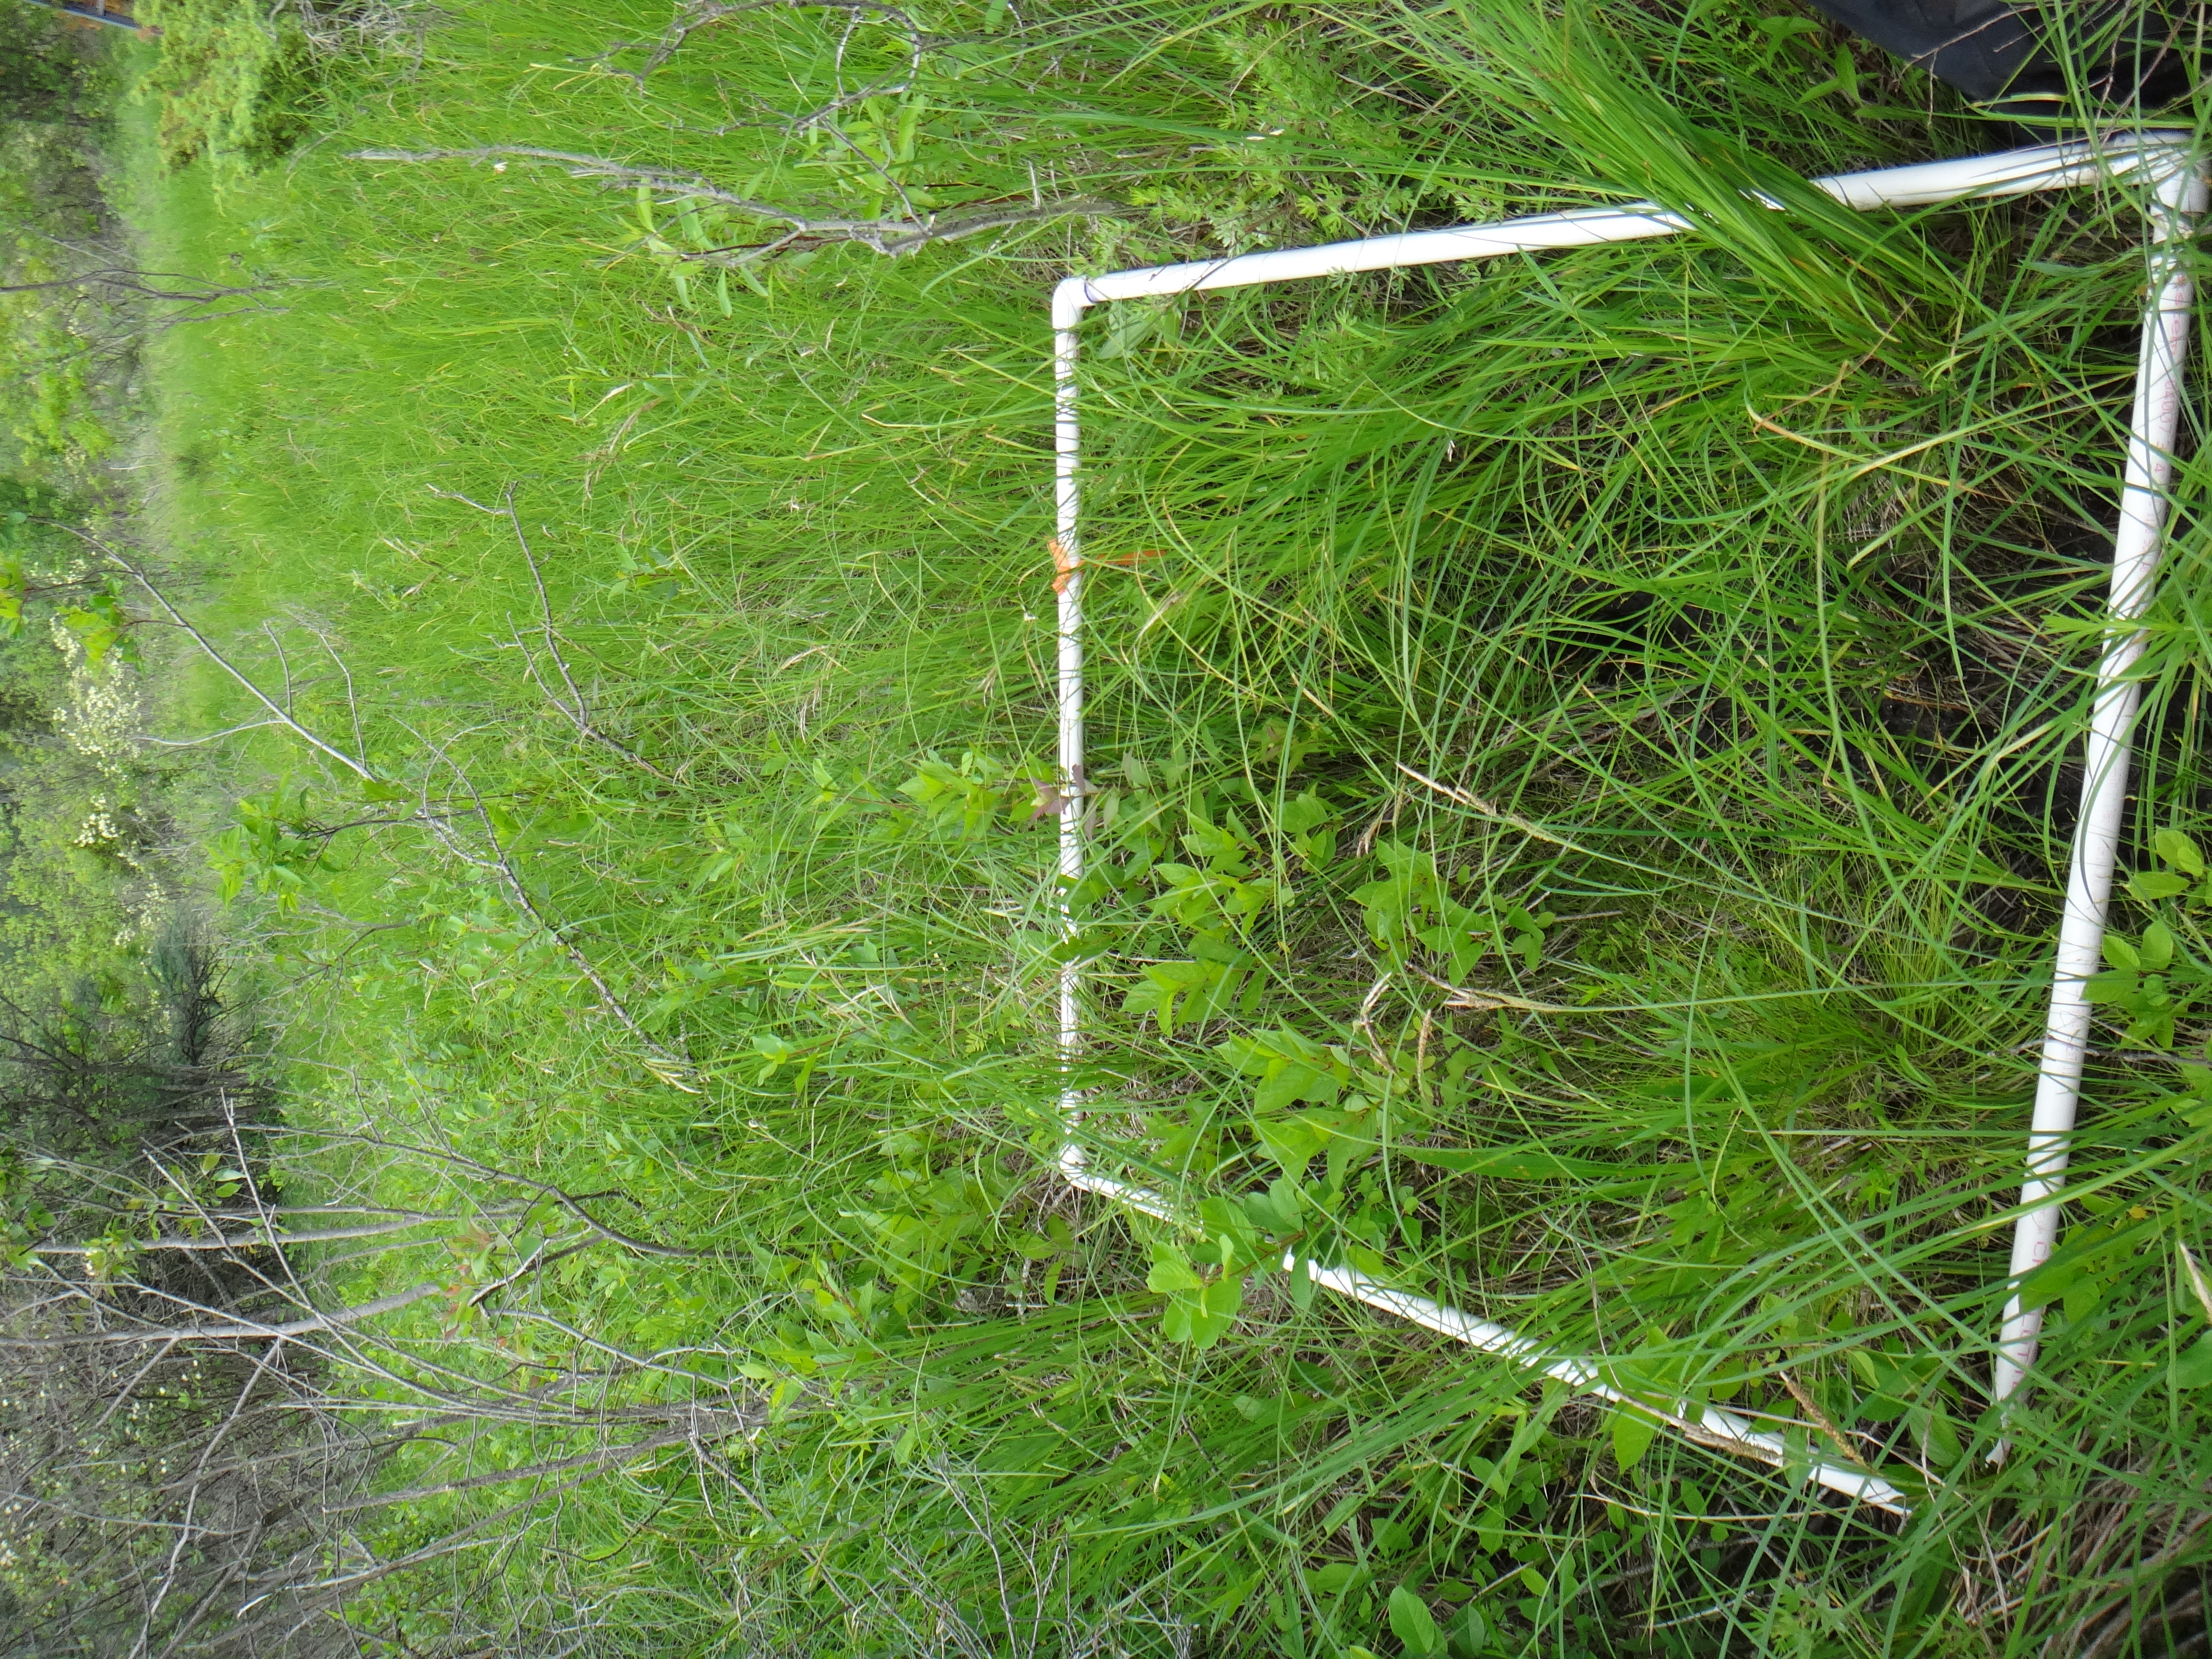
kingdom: Plantae
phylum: Tracheophyta
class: Magnoliopsida
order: Cornales
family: Cornaceae
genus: Cornus
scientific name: Cornus foemina
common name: Swamp dogwood
